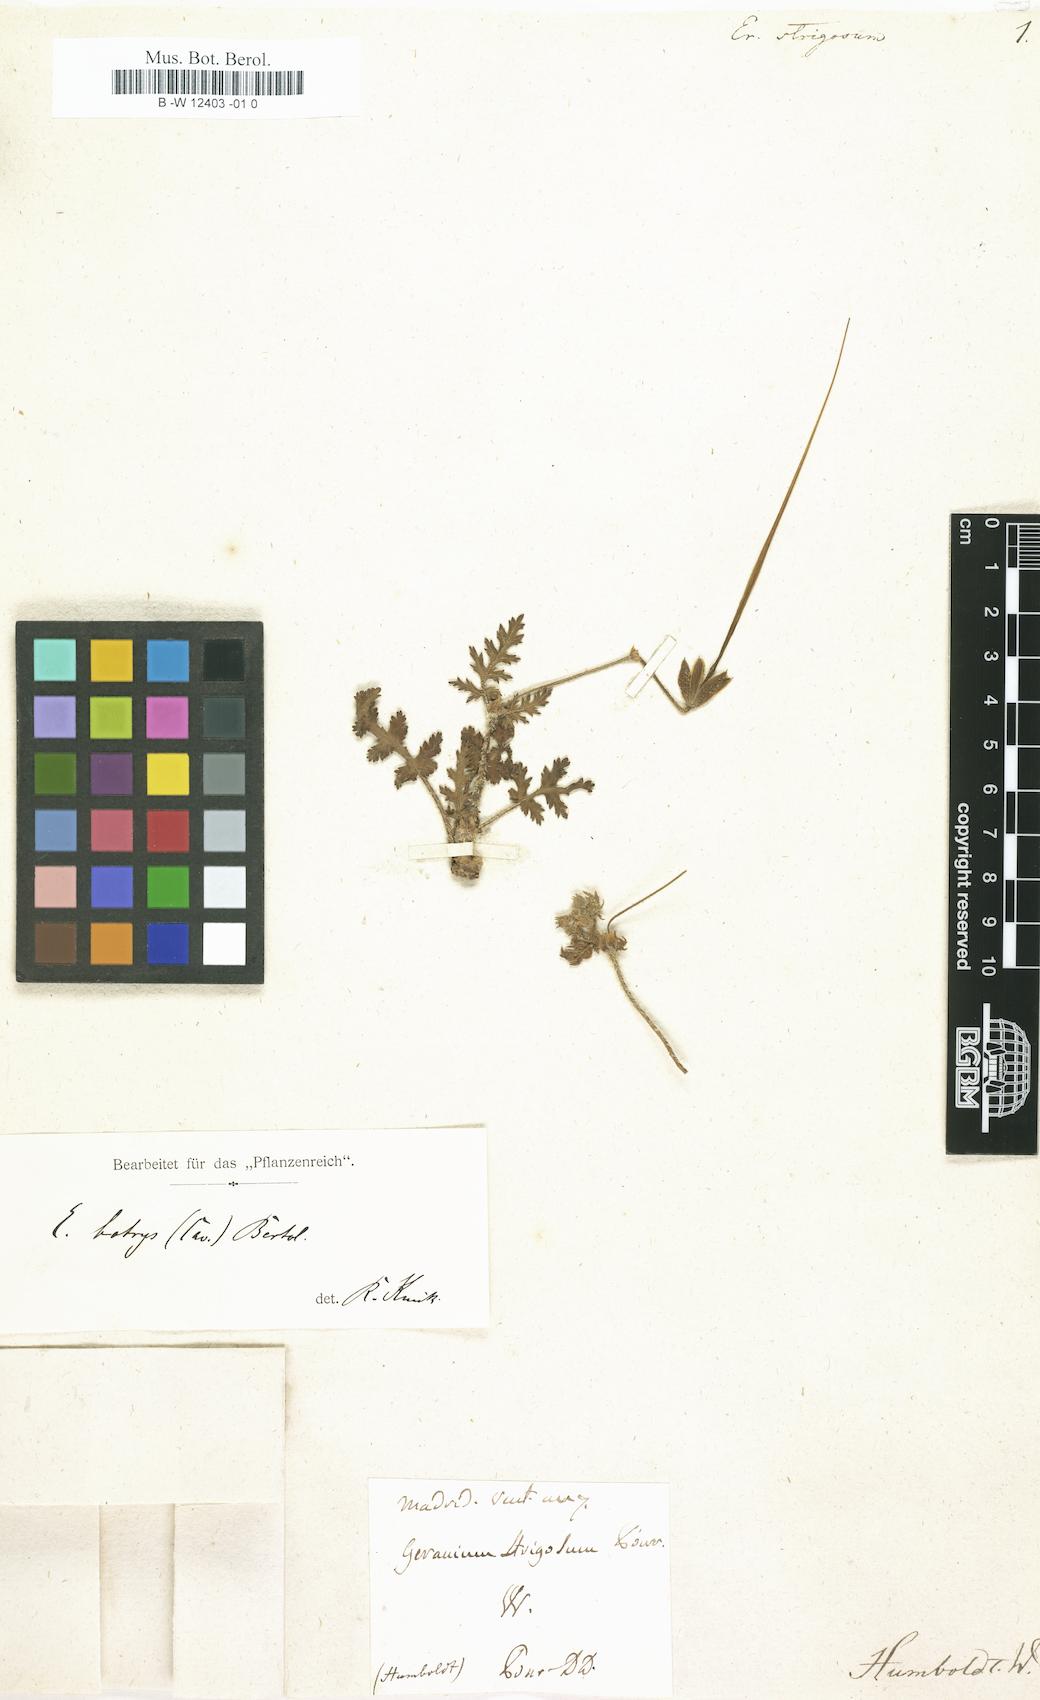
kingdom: Plantae
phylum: Tracheophyta
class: Magnoliopsida
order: Geraniales
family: Geraniaceae
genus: Erodium
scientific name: Erodium laciniatum
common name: Cutleaf stork's bill
